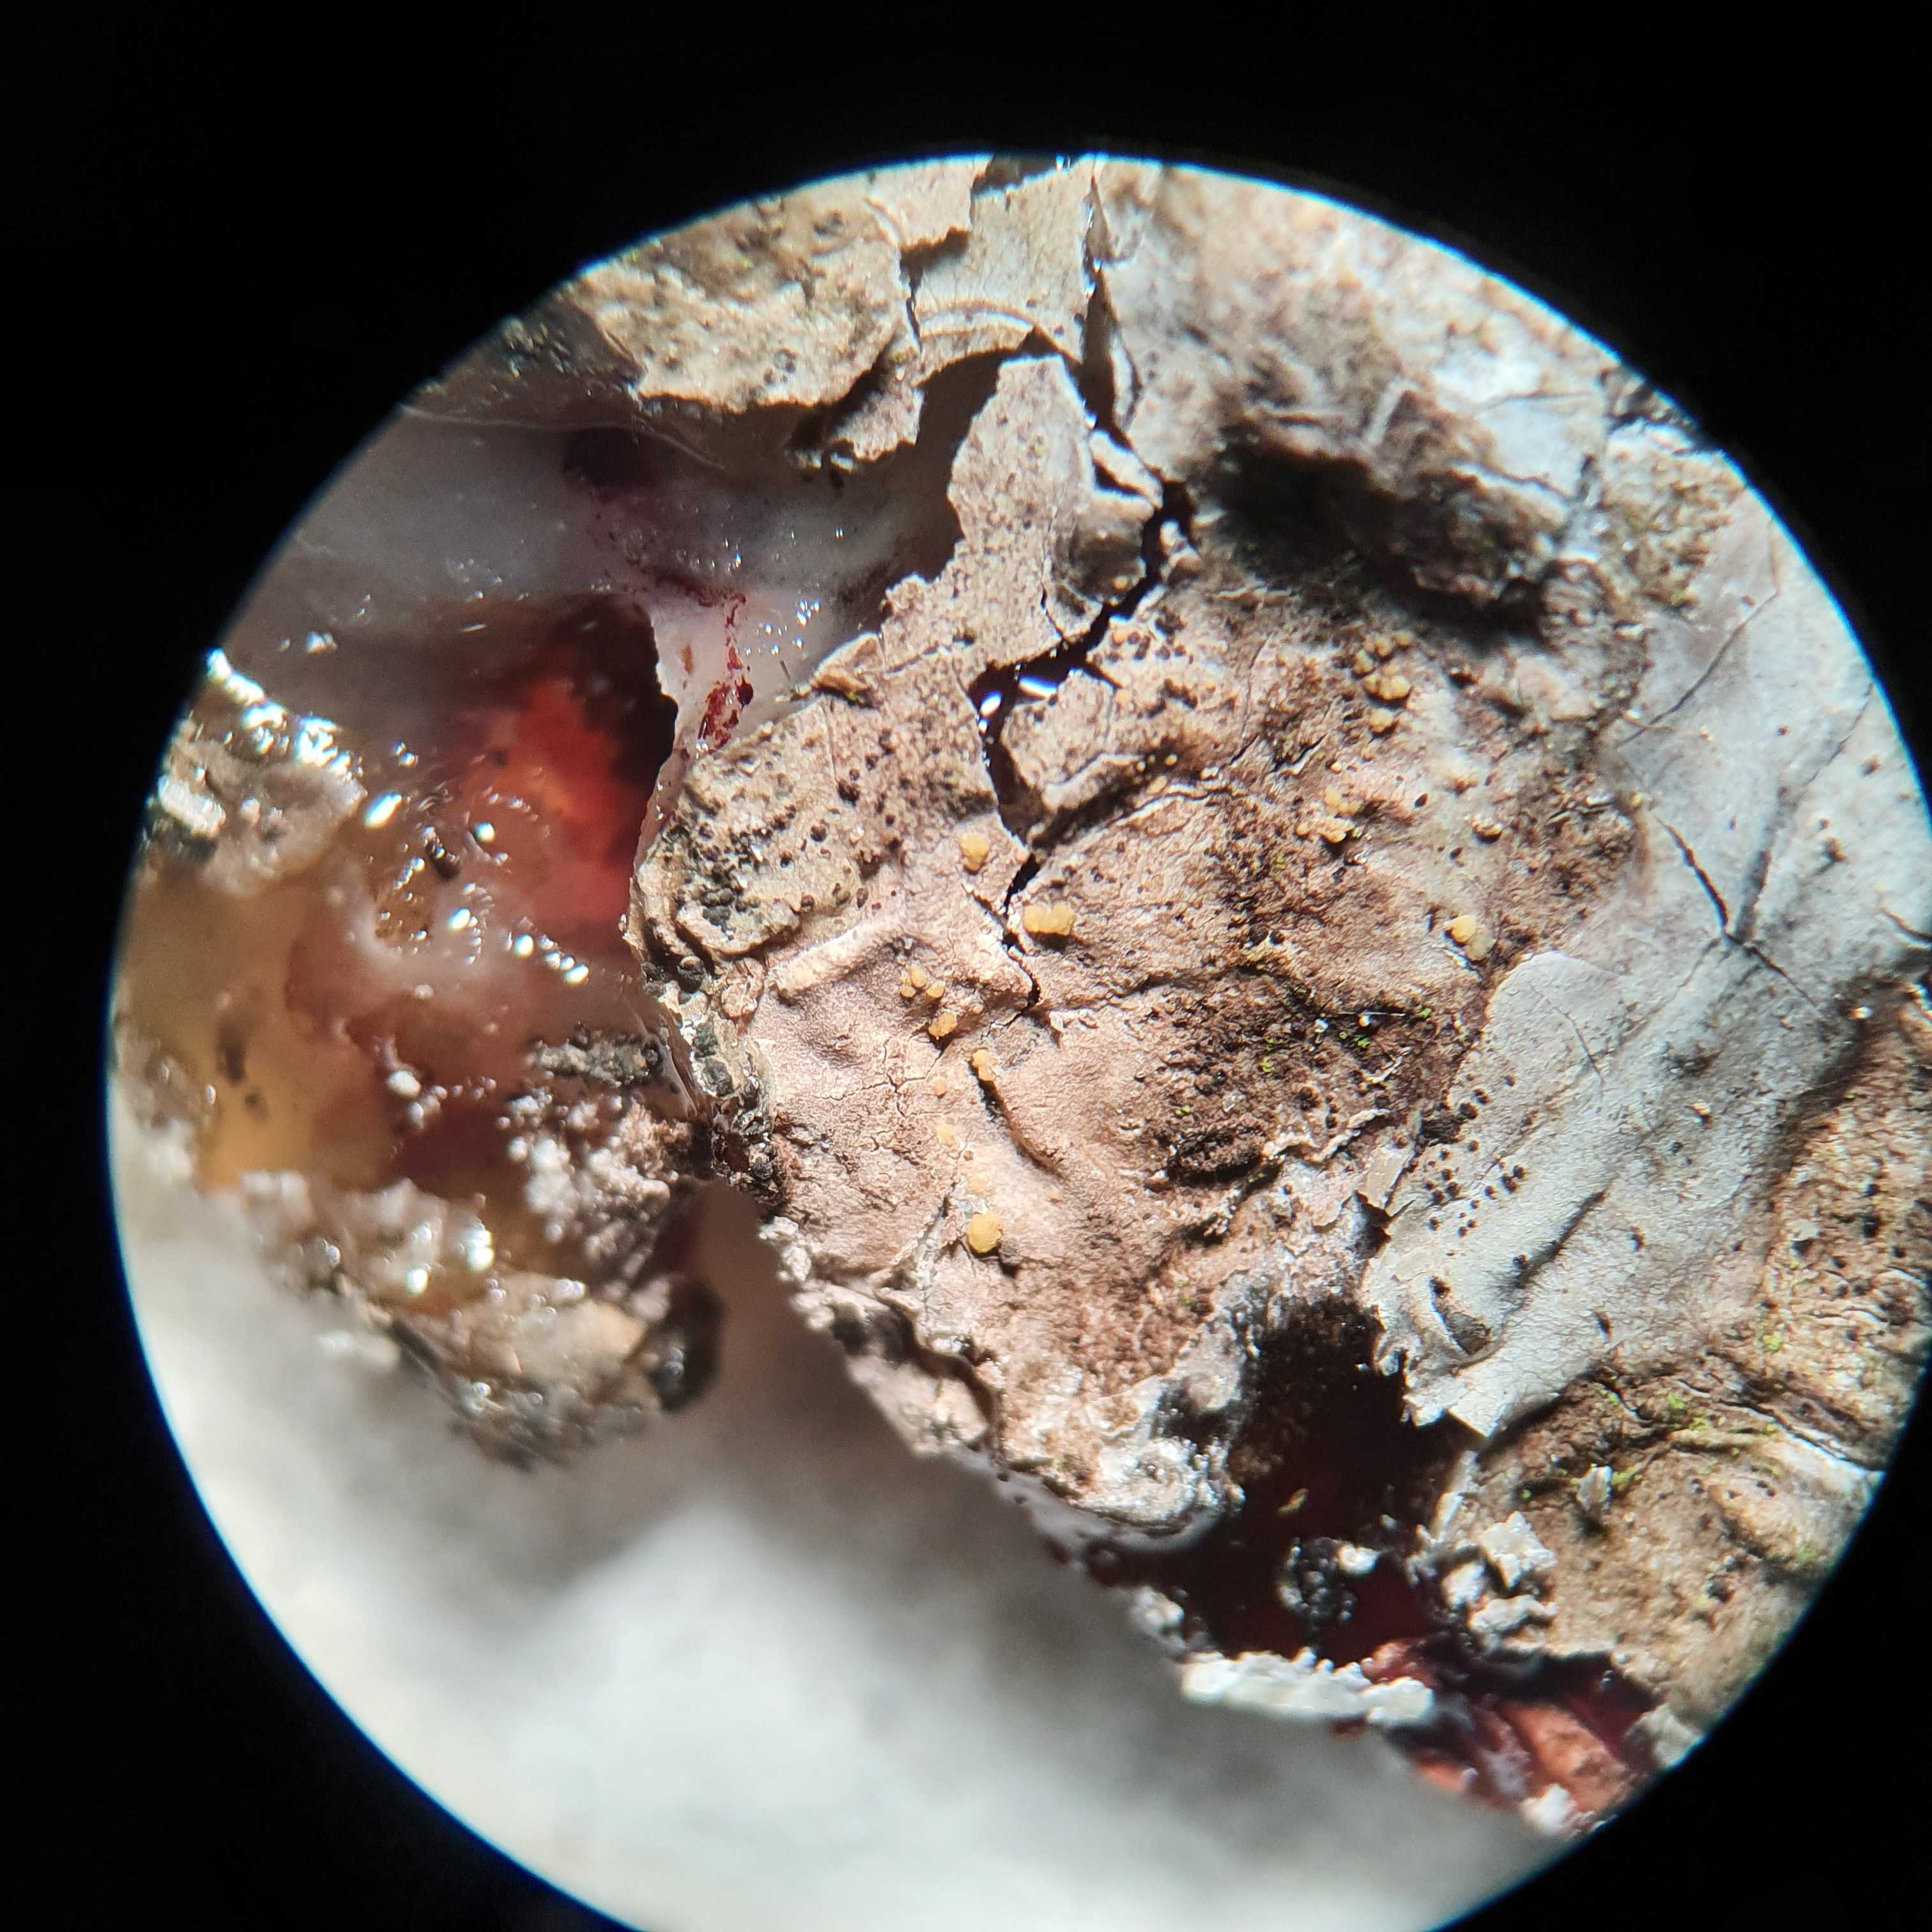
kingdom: Fungi
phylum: Ascomycota
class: Sareomycetes
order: Sareales
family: Sareaceae
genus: Sarea
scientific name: Sarea resinae
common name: orangegul harpiksskive
